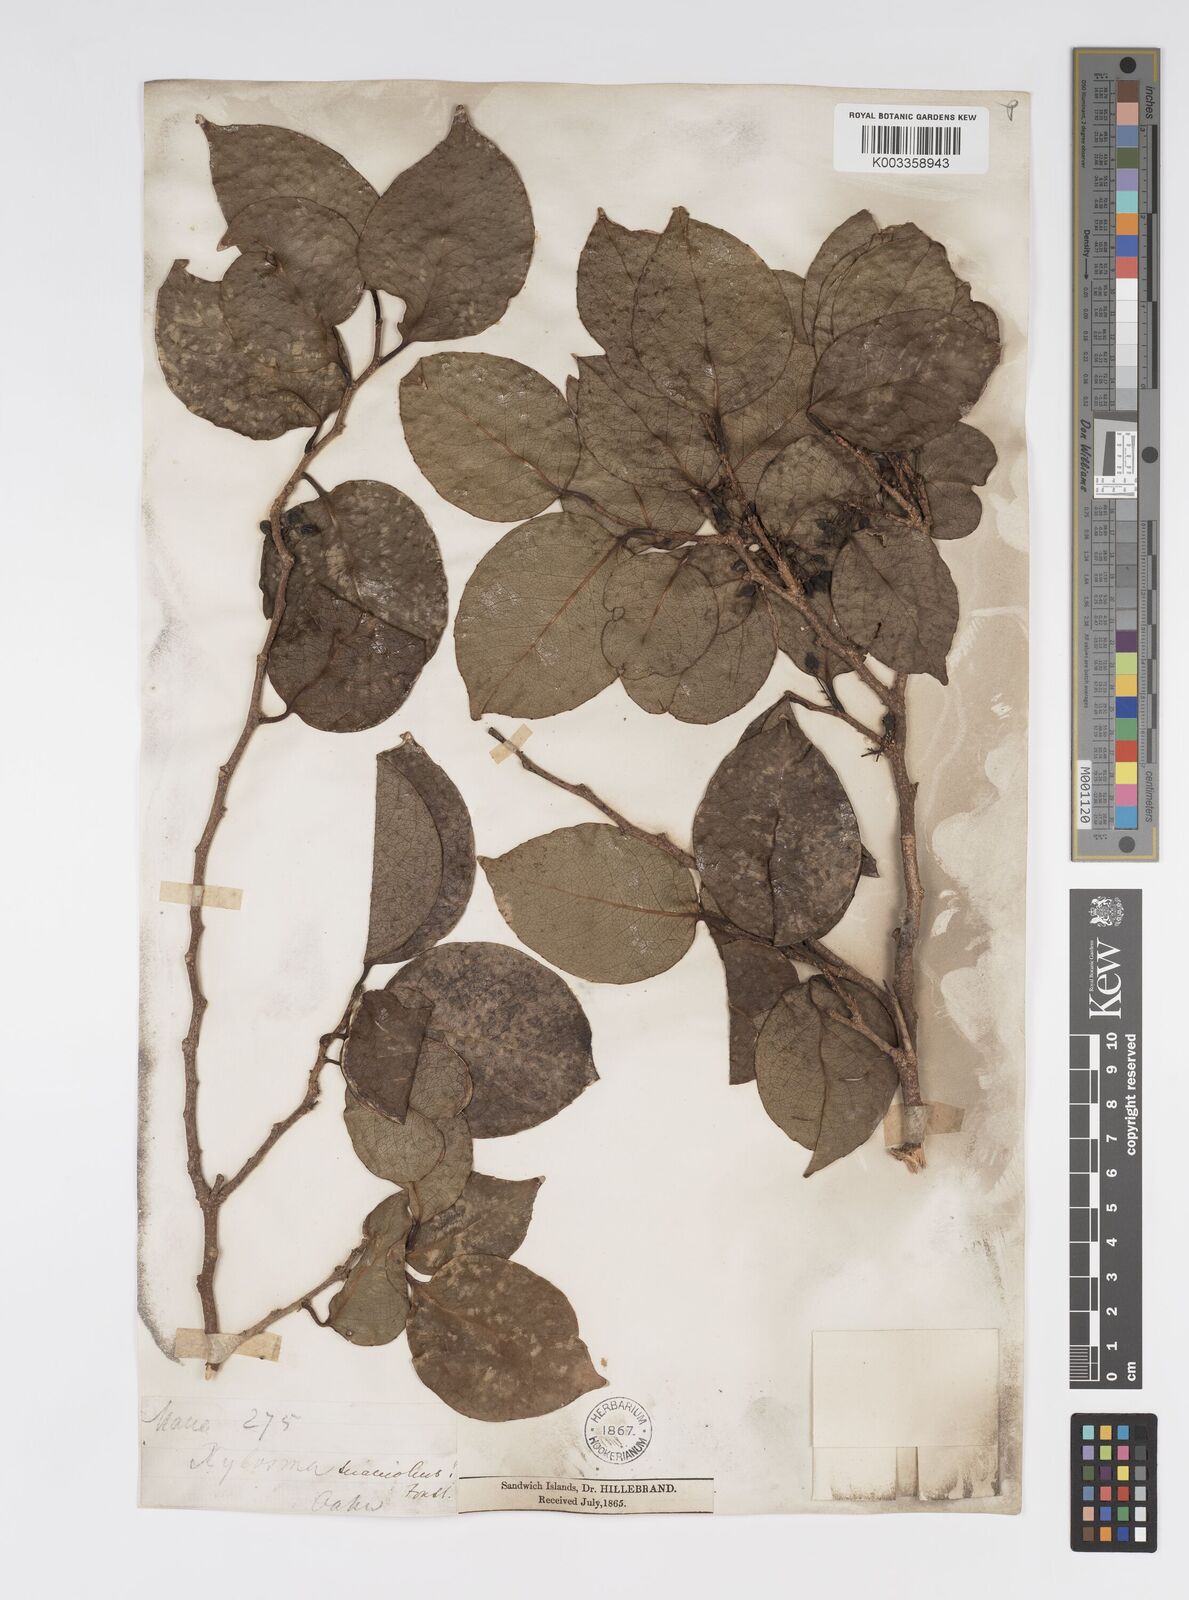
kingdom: Plantae
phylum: Tracheophyta
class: Magnoliopsida
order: Malpighiales
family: Salicaceae
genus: Xylosma
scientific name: Xylosma hawaiense
